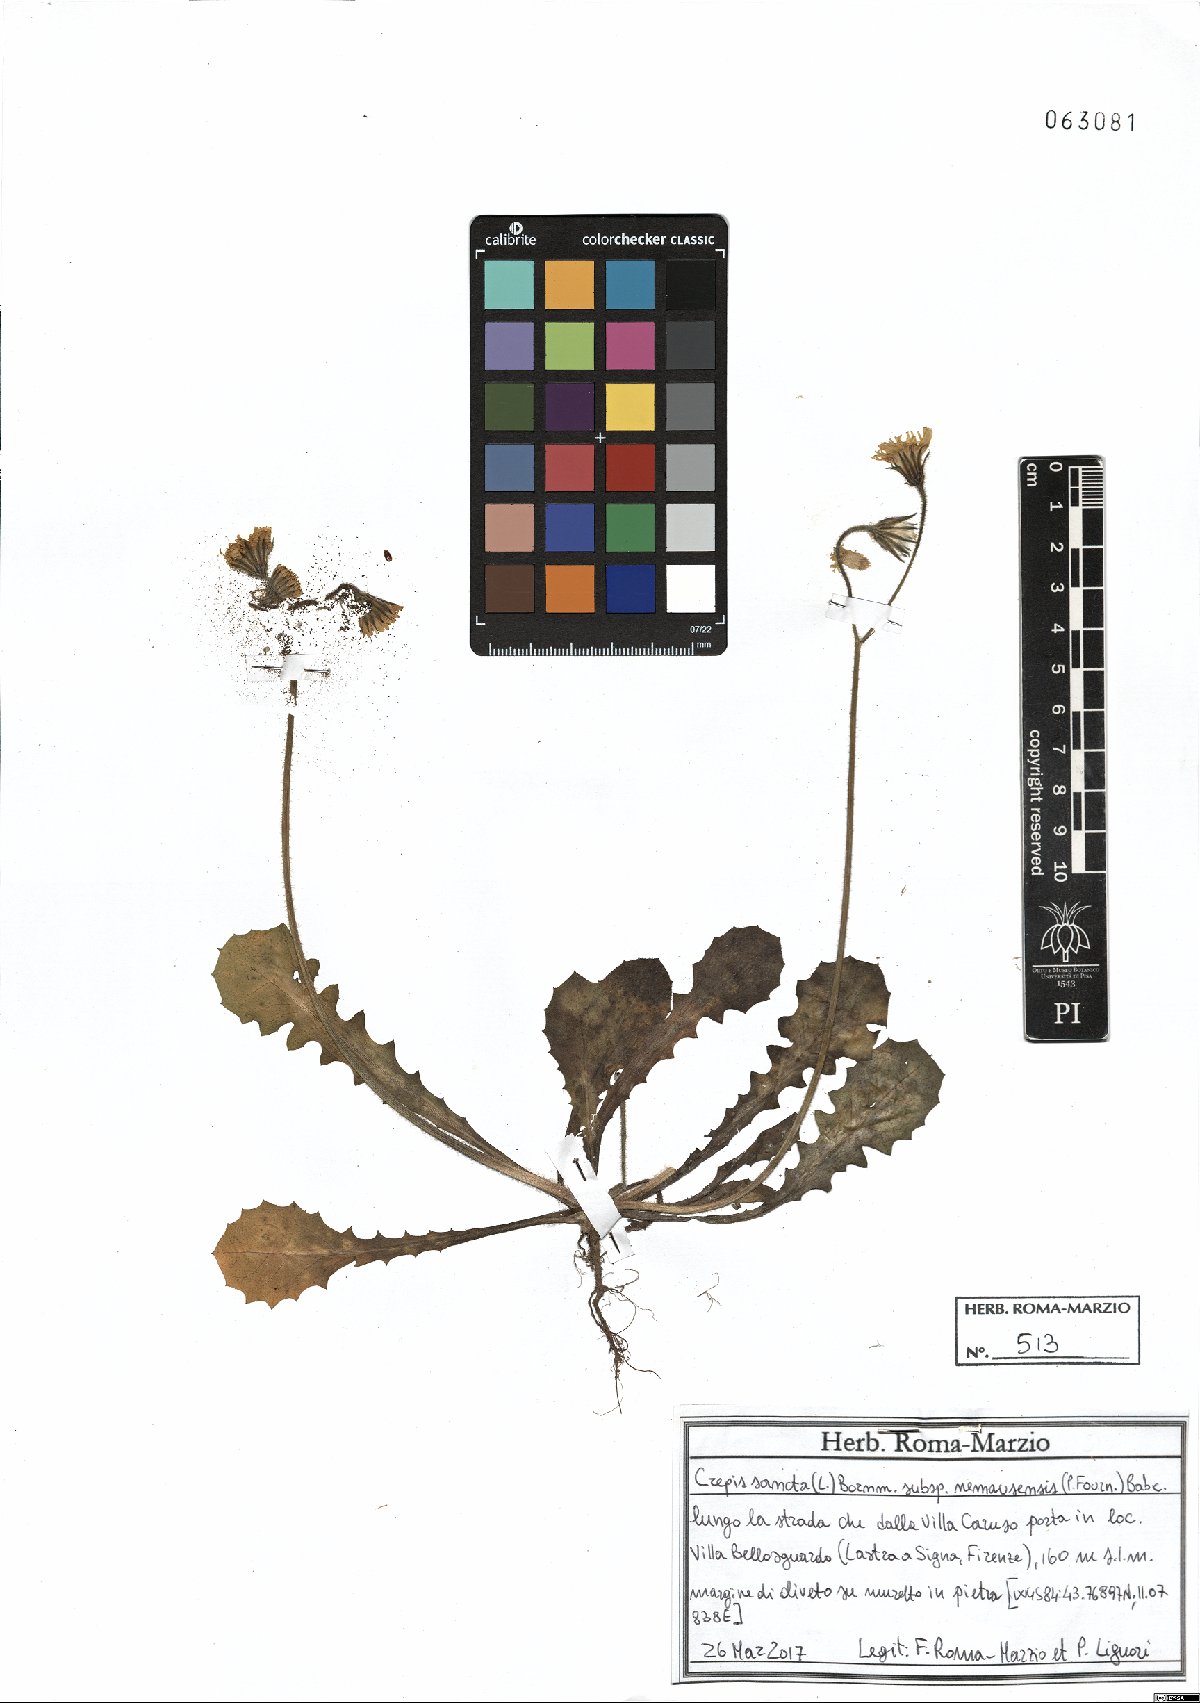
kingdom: Plantae
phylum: Tracheophyta
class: Magnoliopsida
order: Asterales
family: Asteraceae
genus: Crepis
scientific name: Crepis sancta
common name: Hawk's-beard
